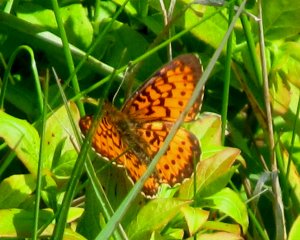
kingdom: Animalia
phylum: Arthropoda
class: Insecta
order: Lepidoptera
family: Nymphalidae
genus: Boloria
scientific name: Boloria selene
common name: Silver-bordered Fritillary
